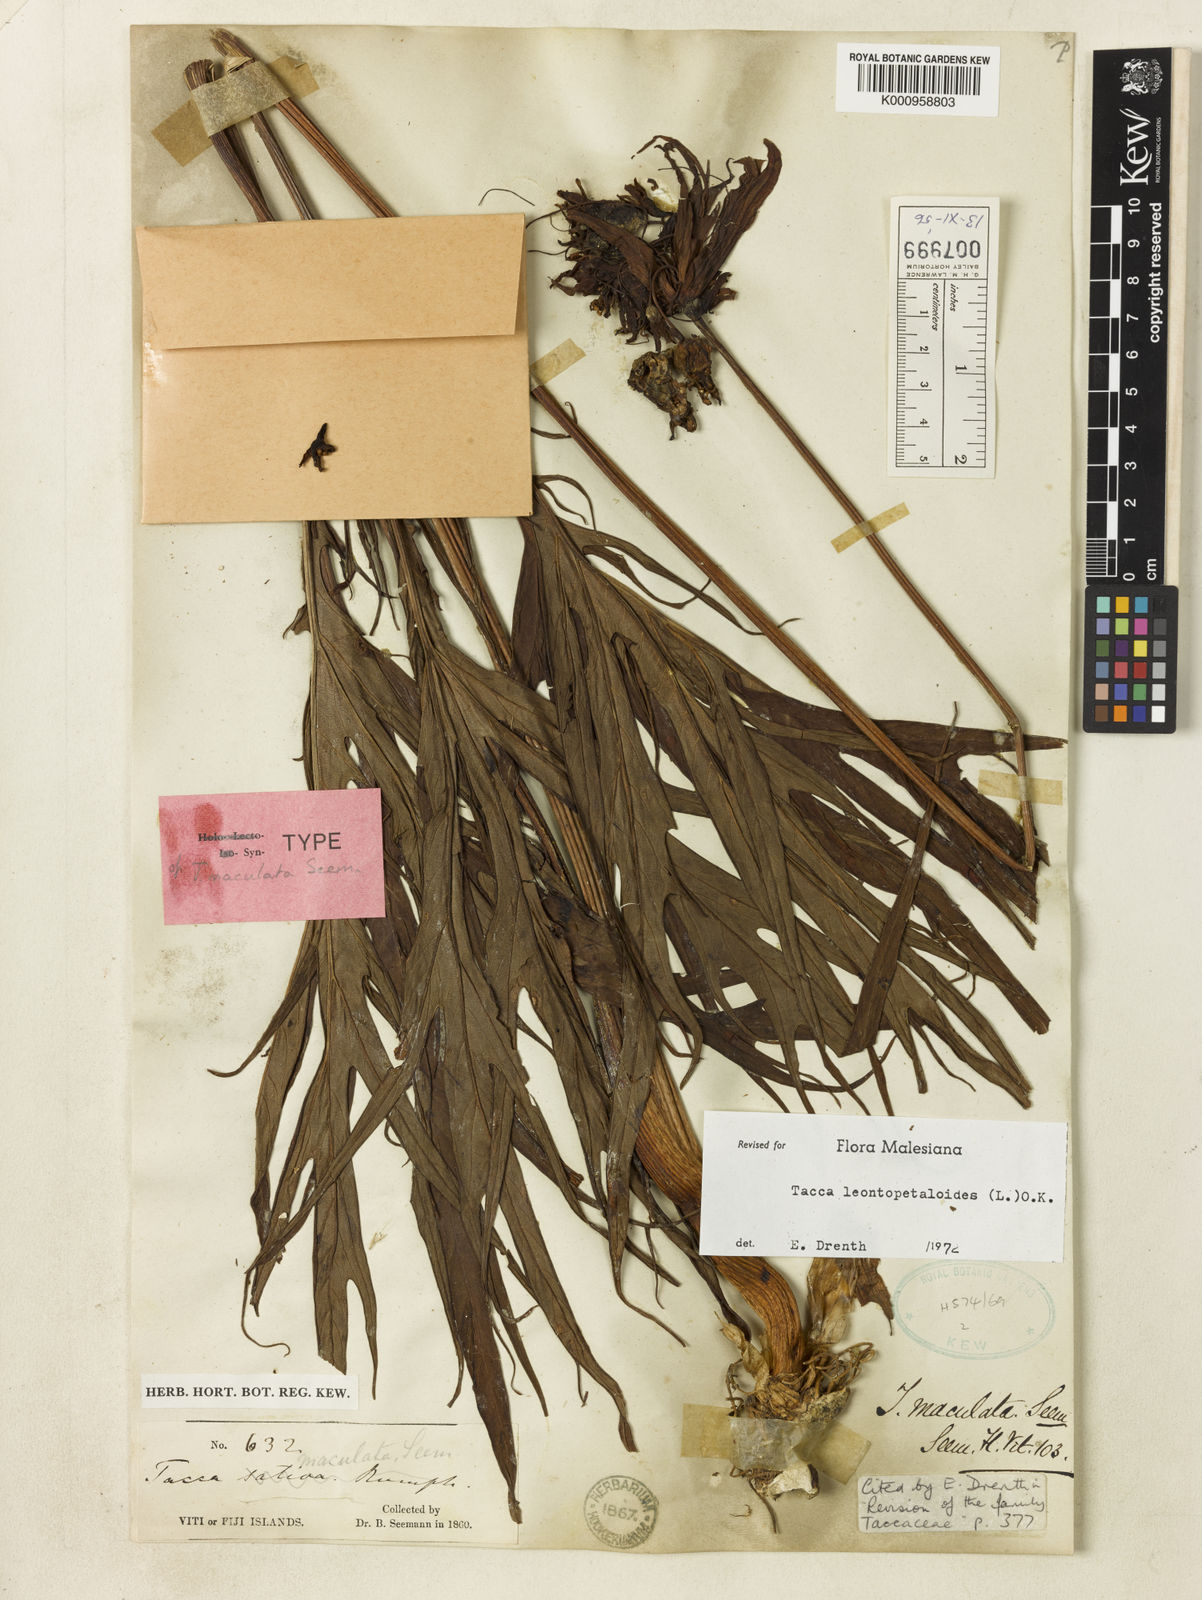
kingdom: Plantae
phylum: Tracheophyta
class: Liliopsida
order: Dioscoreales
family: Dioscoreaceae
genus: Tacca
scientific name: Tacca leontopetaloides
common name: Arrowroot
